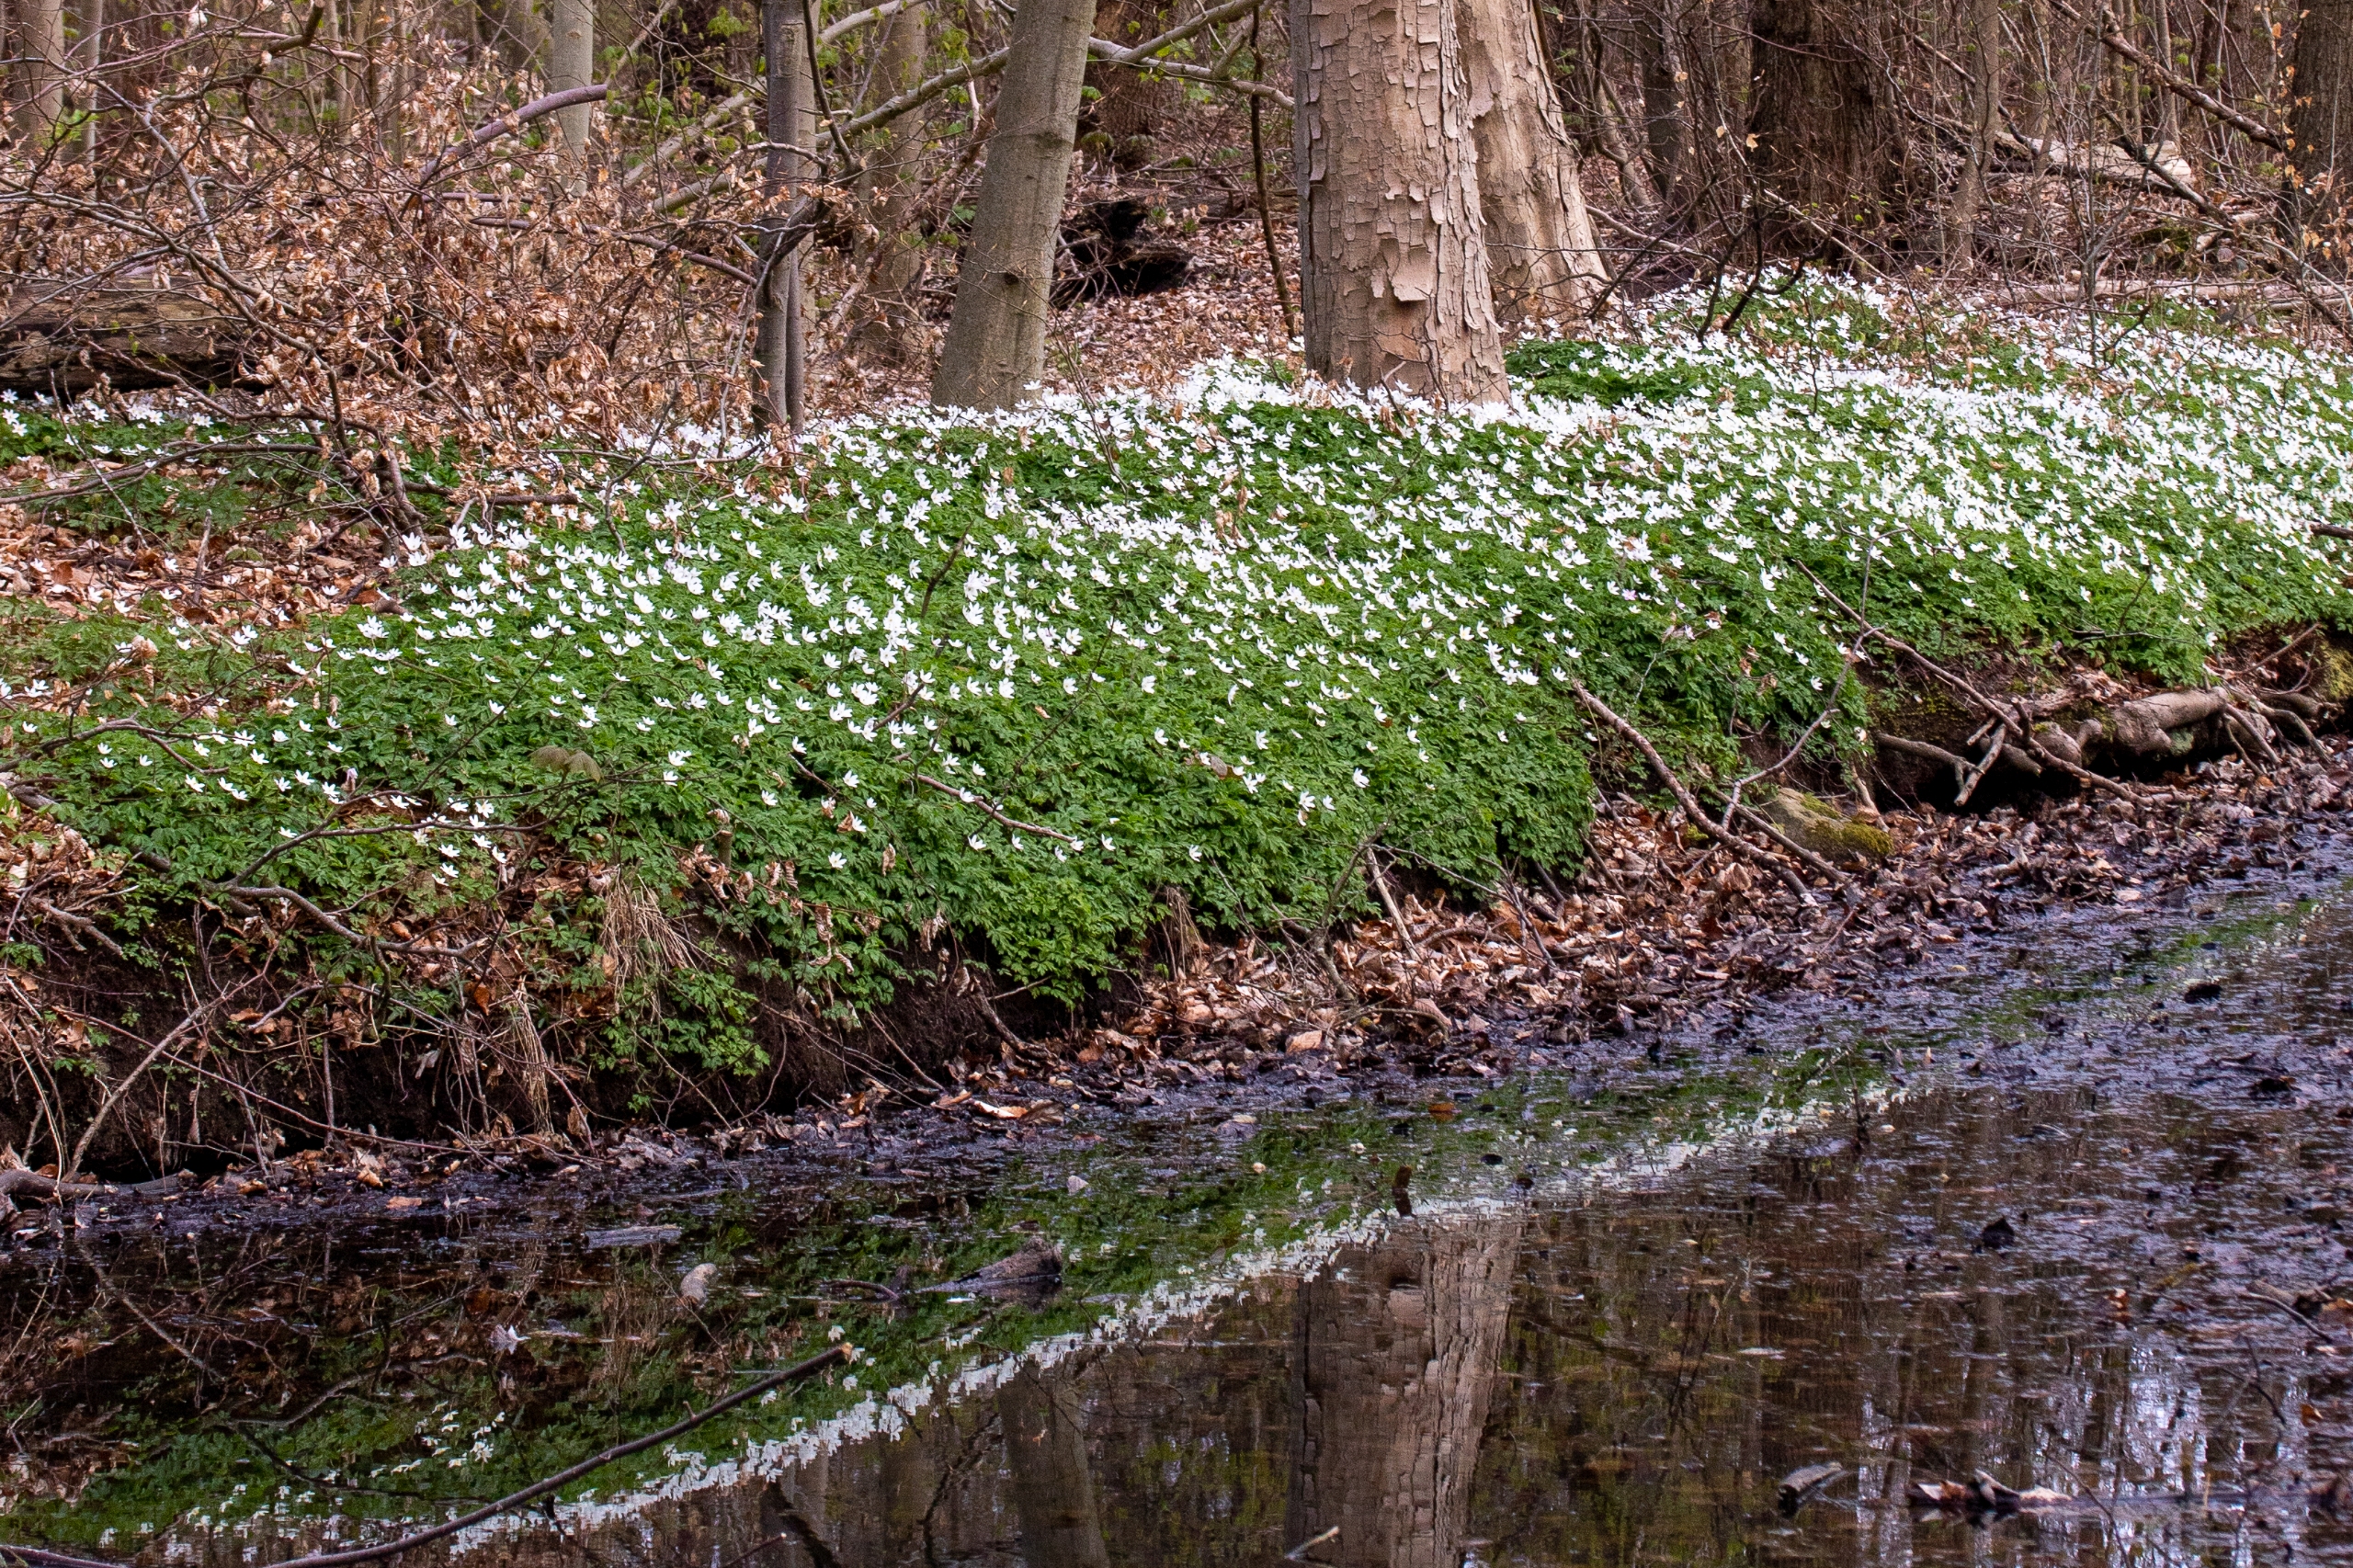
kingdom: Plantae
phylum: Tracheophyta
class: Magnoliopsida
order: Ranunculales
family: Ranunculaceae
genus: Anemone
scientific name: Anemone nemorosa
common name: Hvid anemone
